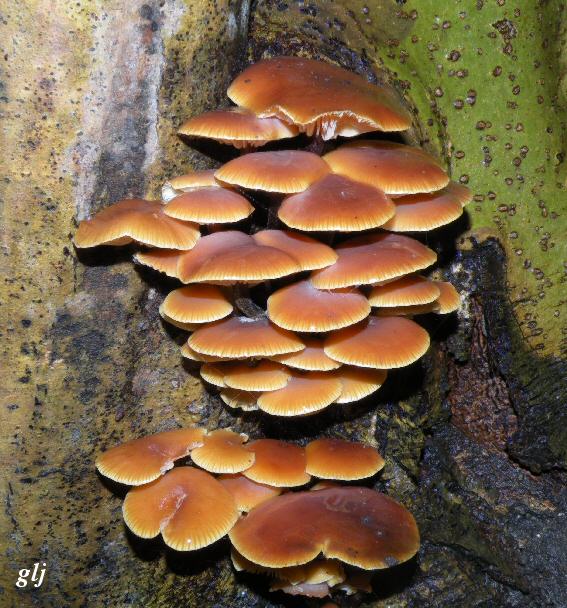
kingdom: Fungi
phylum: Basidiomycota
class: Agaricomycetes
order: Agaricales
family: Physalacriaceae
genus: Flammulina
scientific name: Flammulina elastica
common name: pile-fløjlsfod
